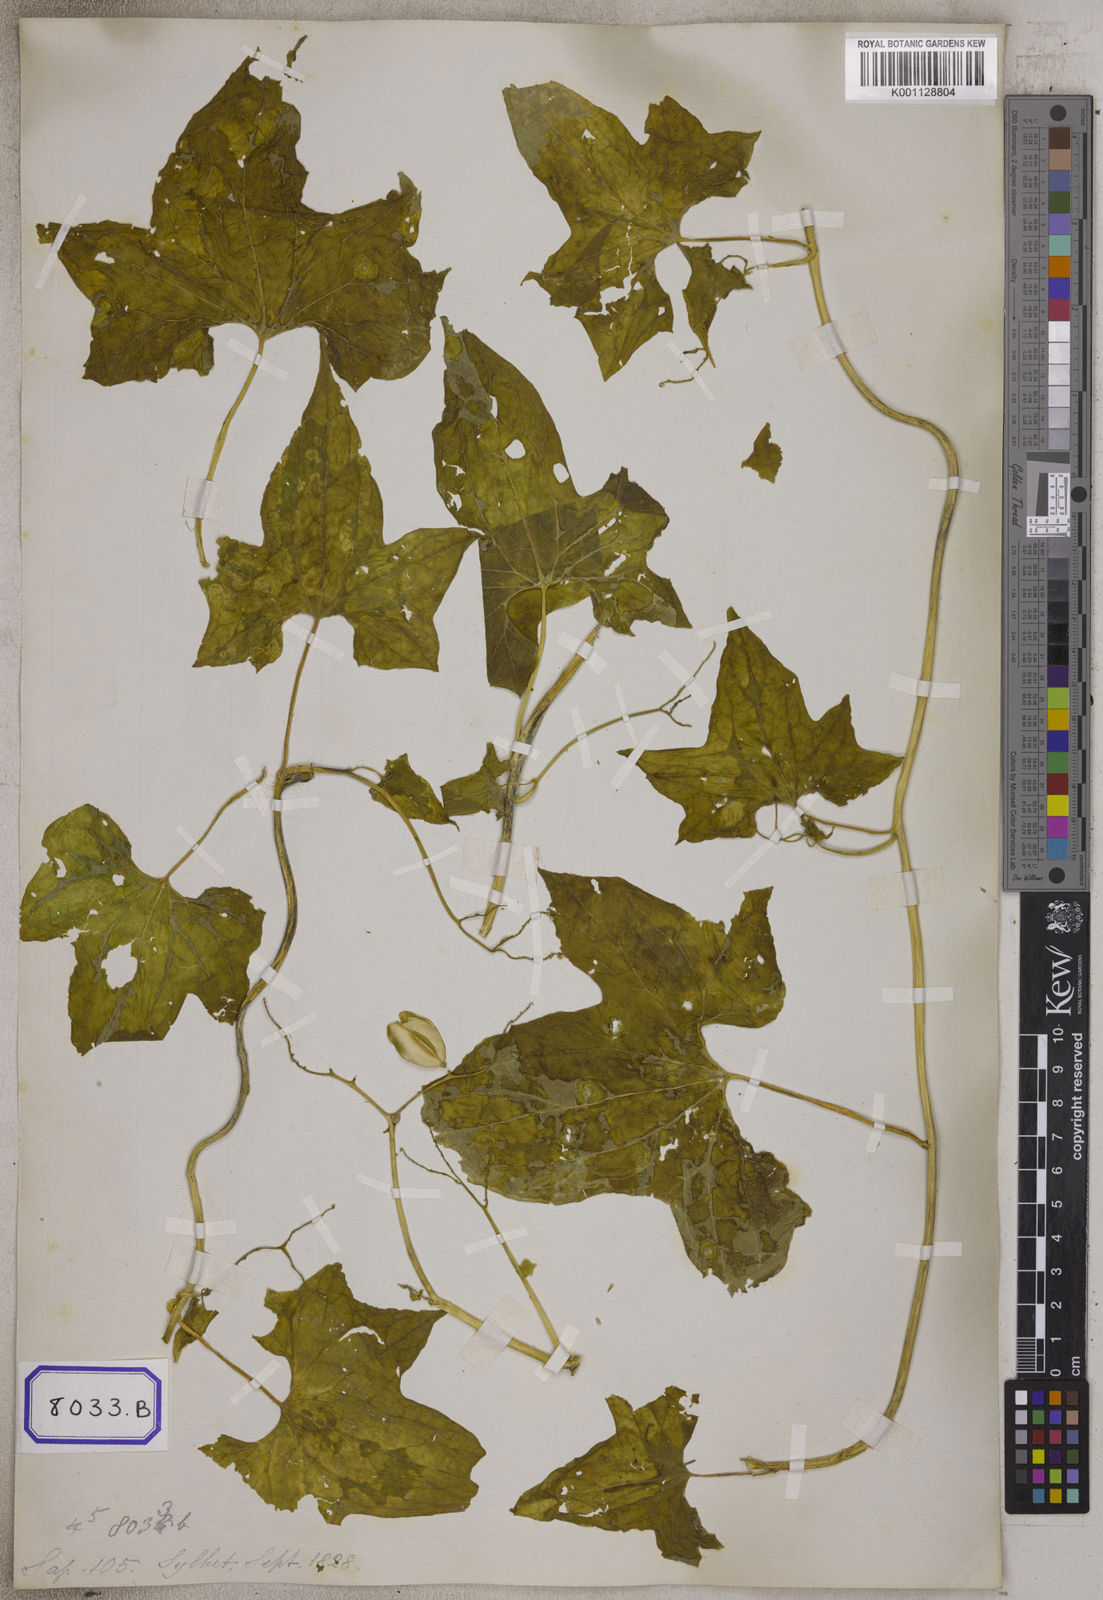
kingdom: Plantae
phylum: Tracheophyta
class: Magnoliopsida
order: Cardiopteridales
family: Cardiopteridaceae
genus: Cardiopteris
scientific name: Cardiopteris
